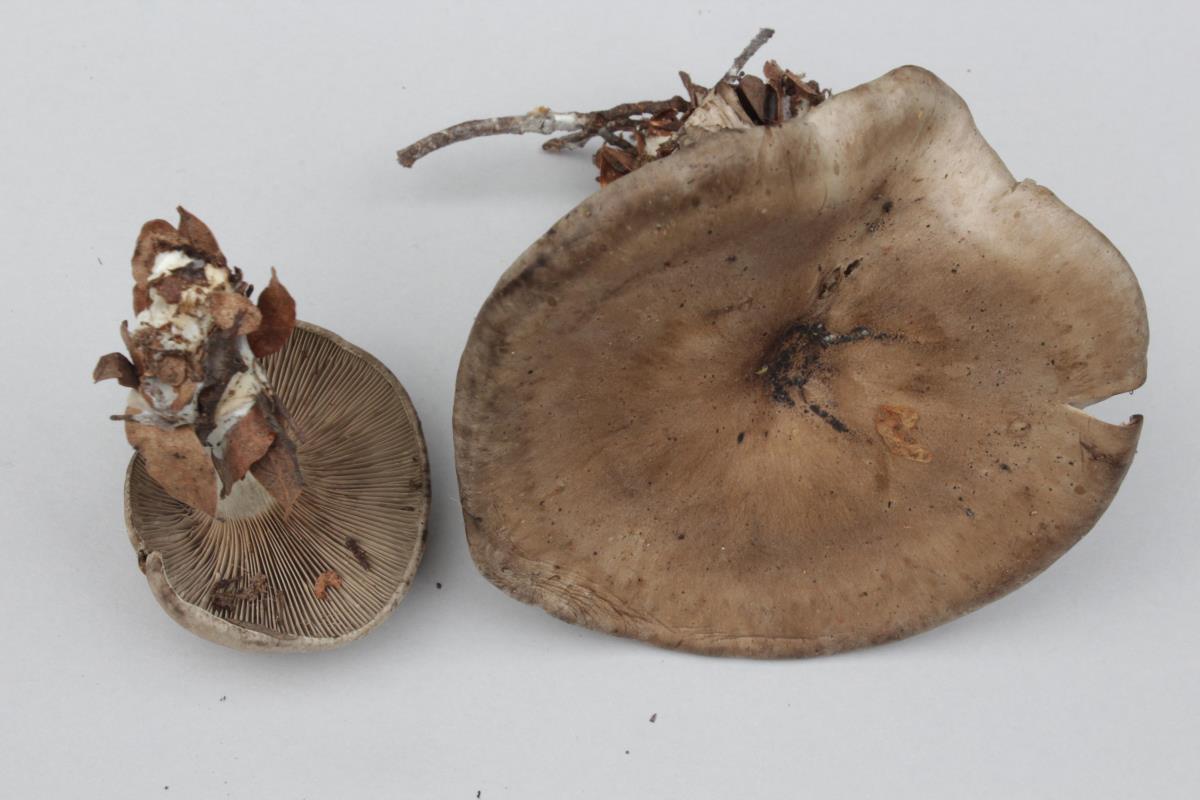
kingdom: Fungi
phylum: Basidiomycota
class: Agaricomycetes
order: Agaricales
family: Entolomataceae
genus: Clitopilus
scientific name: Clitopilus pallidogriseus
